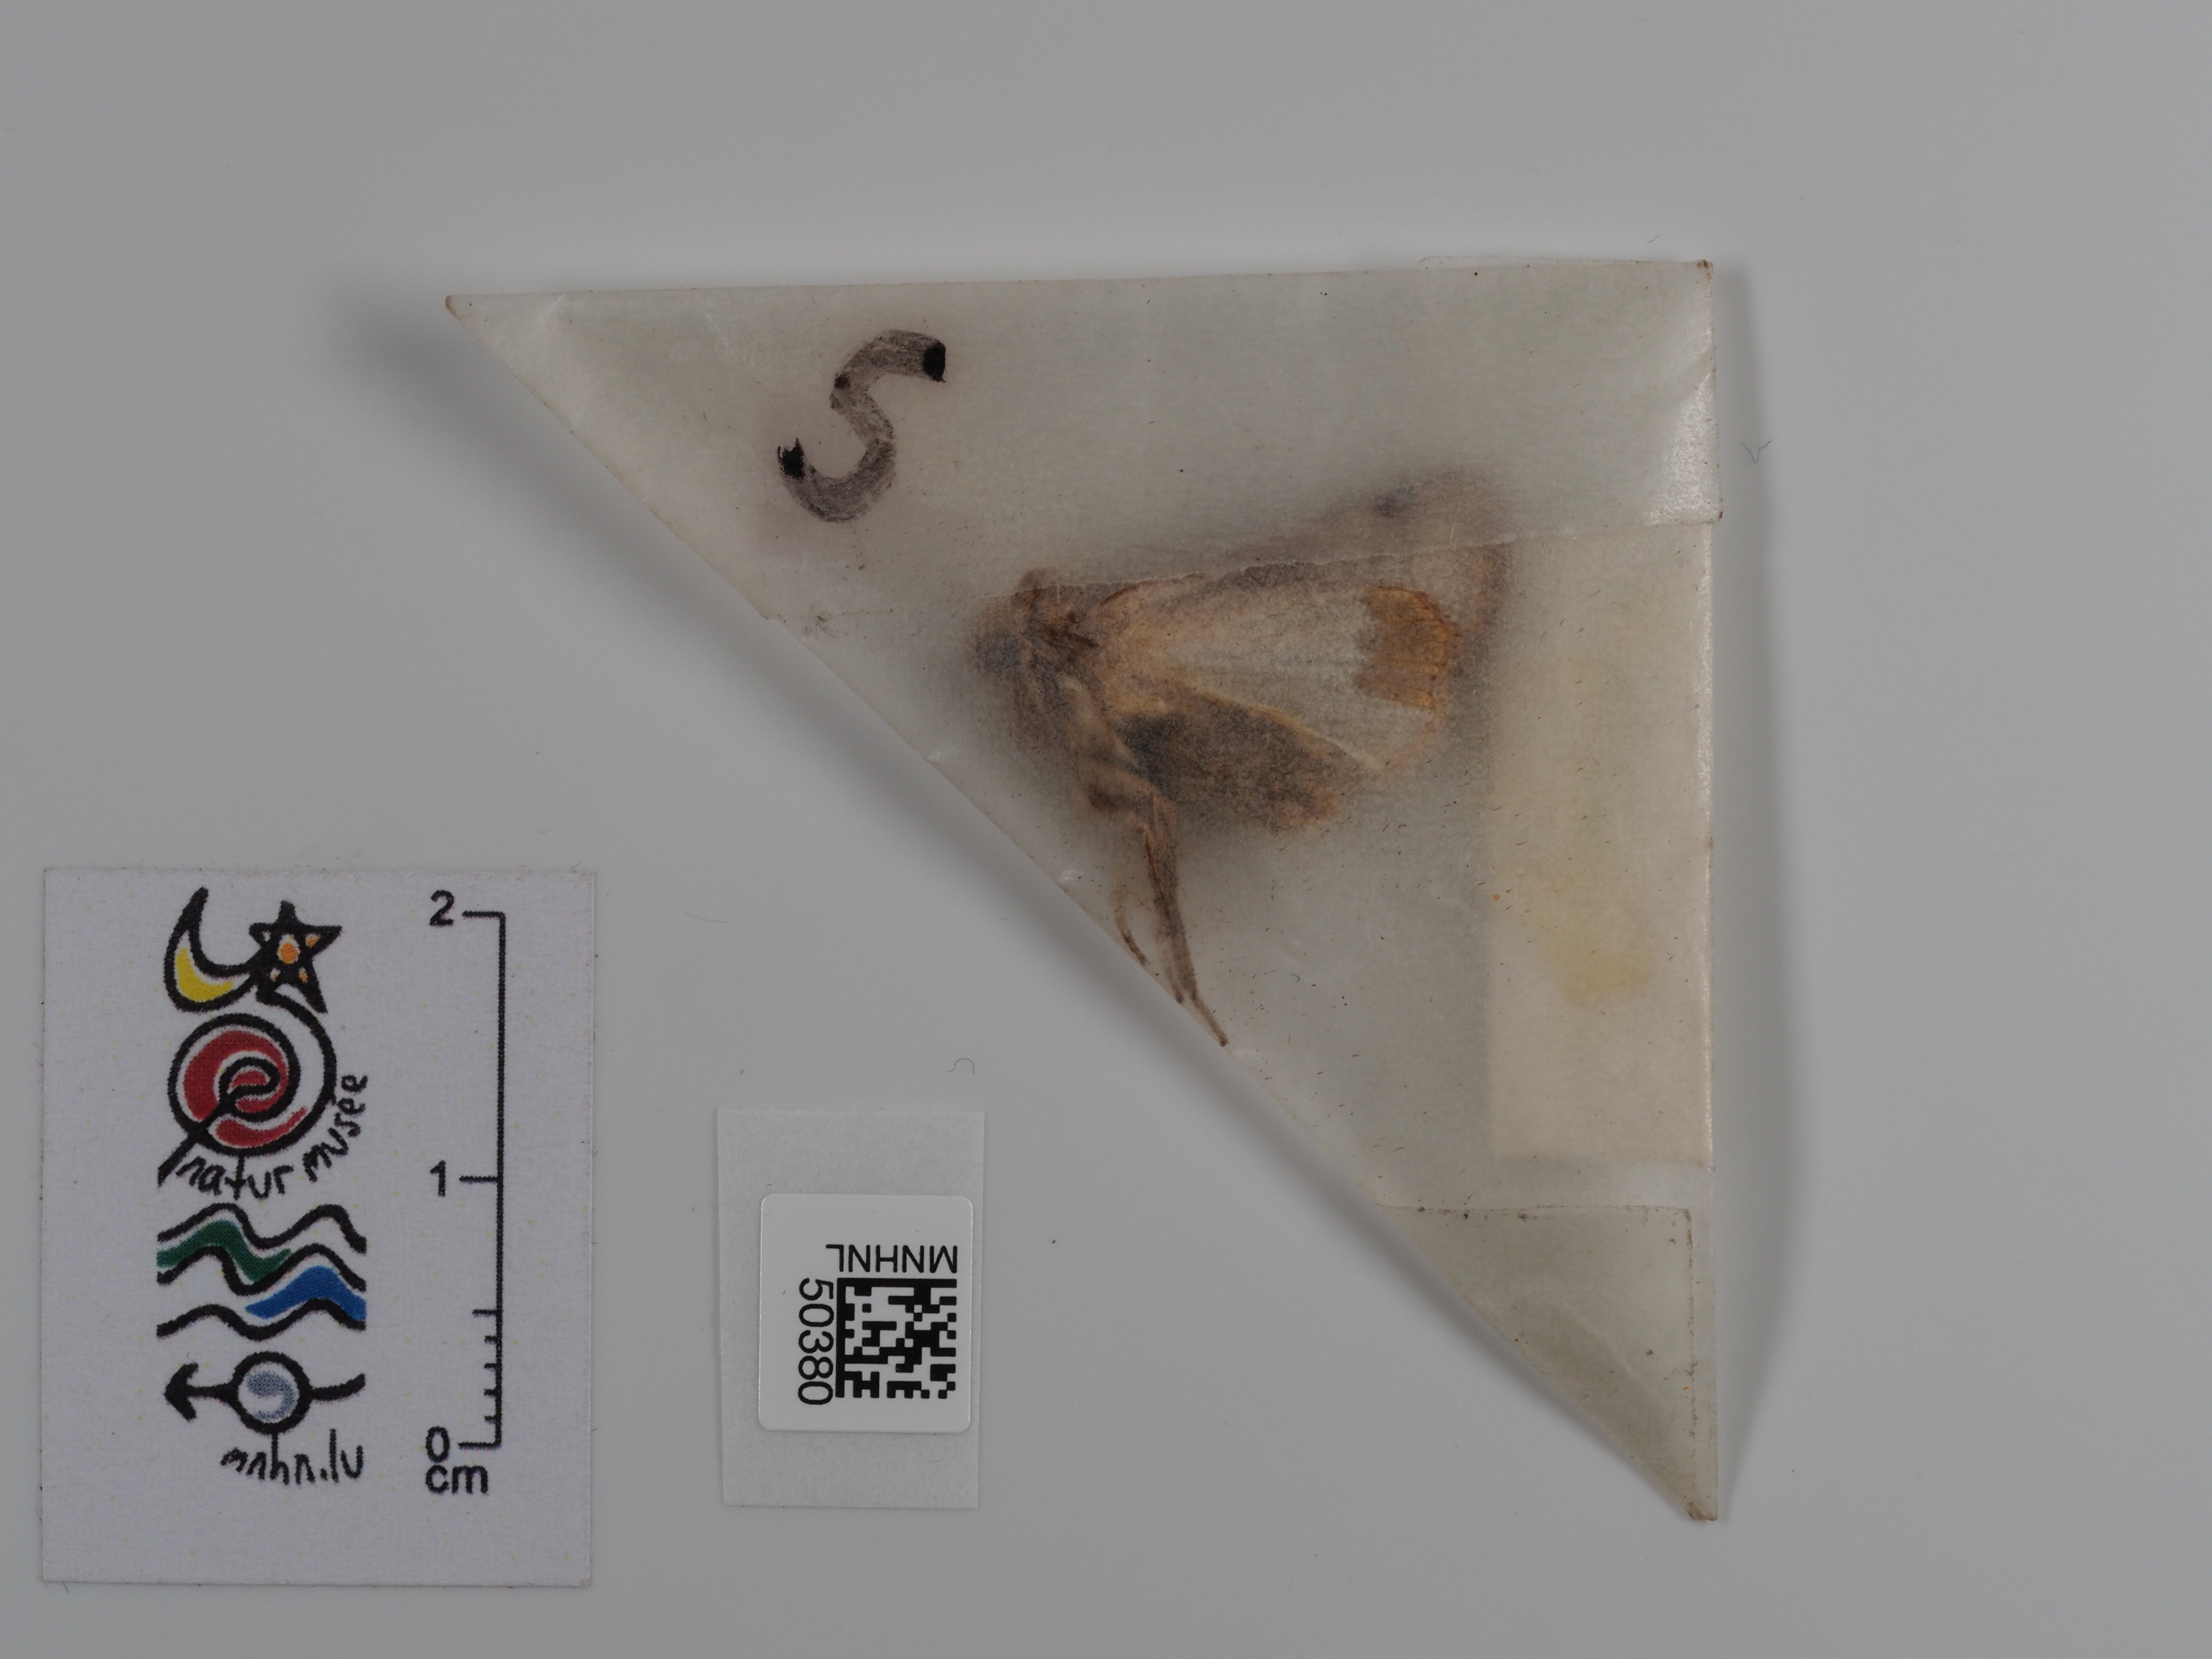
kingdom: Animalia
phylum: Arthropoda
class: Insecta
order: Lepidoptera
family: Noctuidae
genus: Mythimna
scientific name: Mythimna albipuncta
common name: White-point
